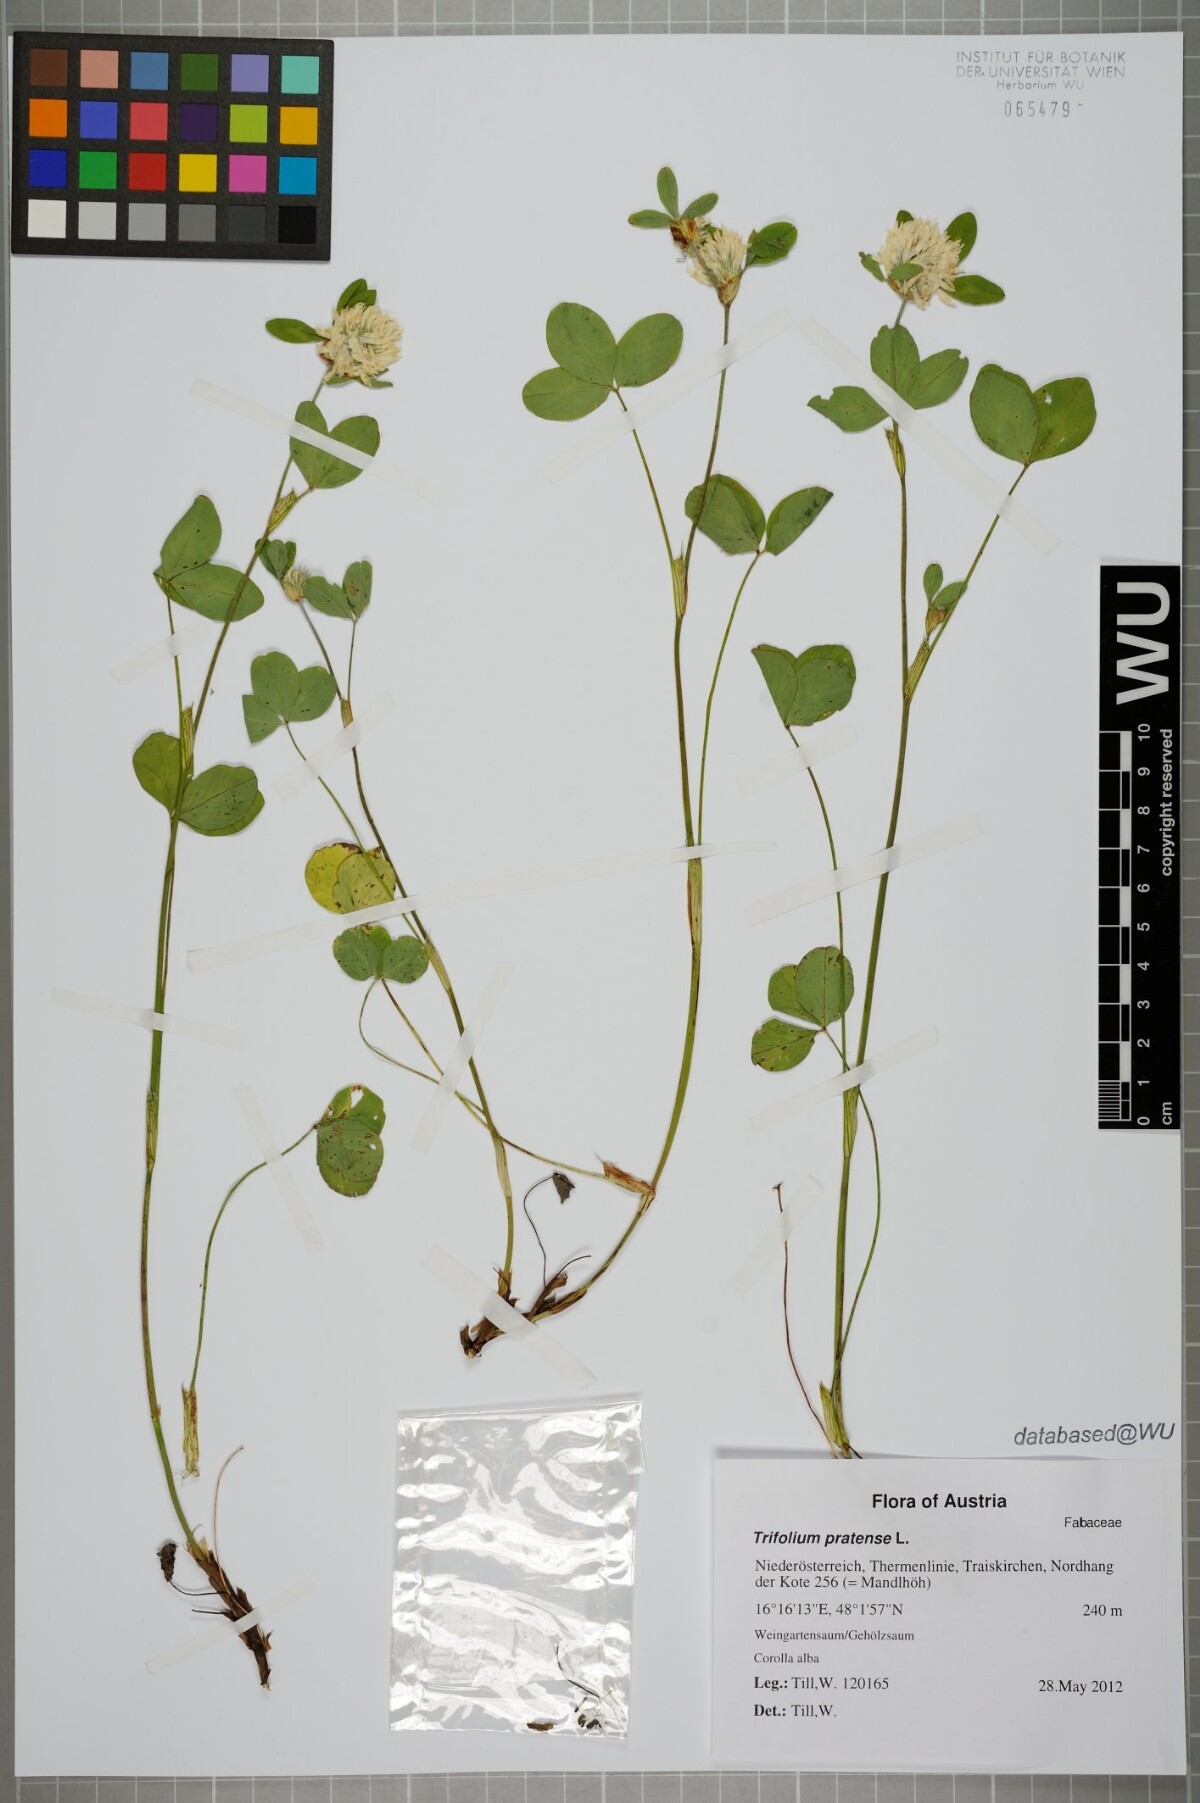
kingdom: Plantae
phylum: Tracheophyta
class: Magnoliopsida
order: Fabales
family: Fabaceae
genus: Trifolium
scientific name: Trifolium pratense
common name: Red clover
